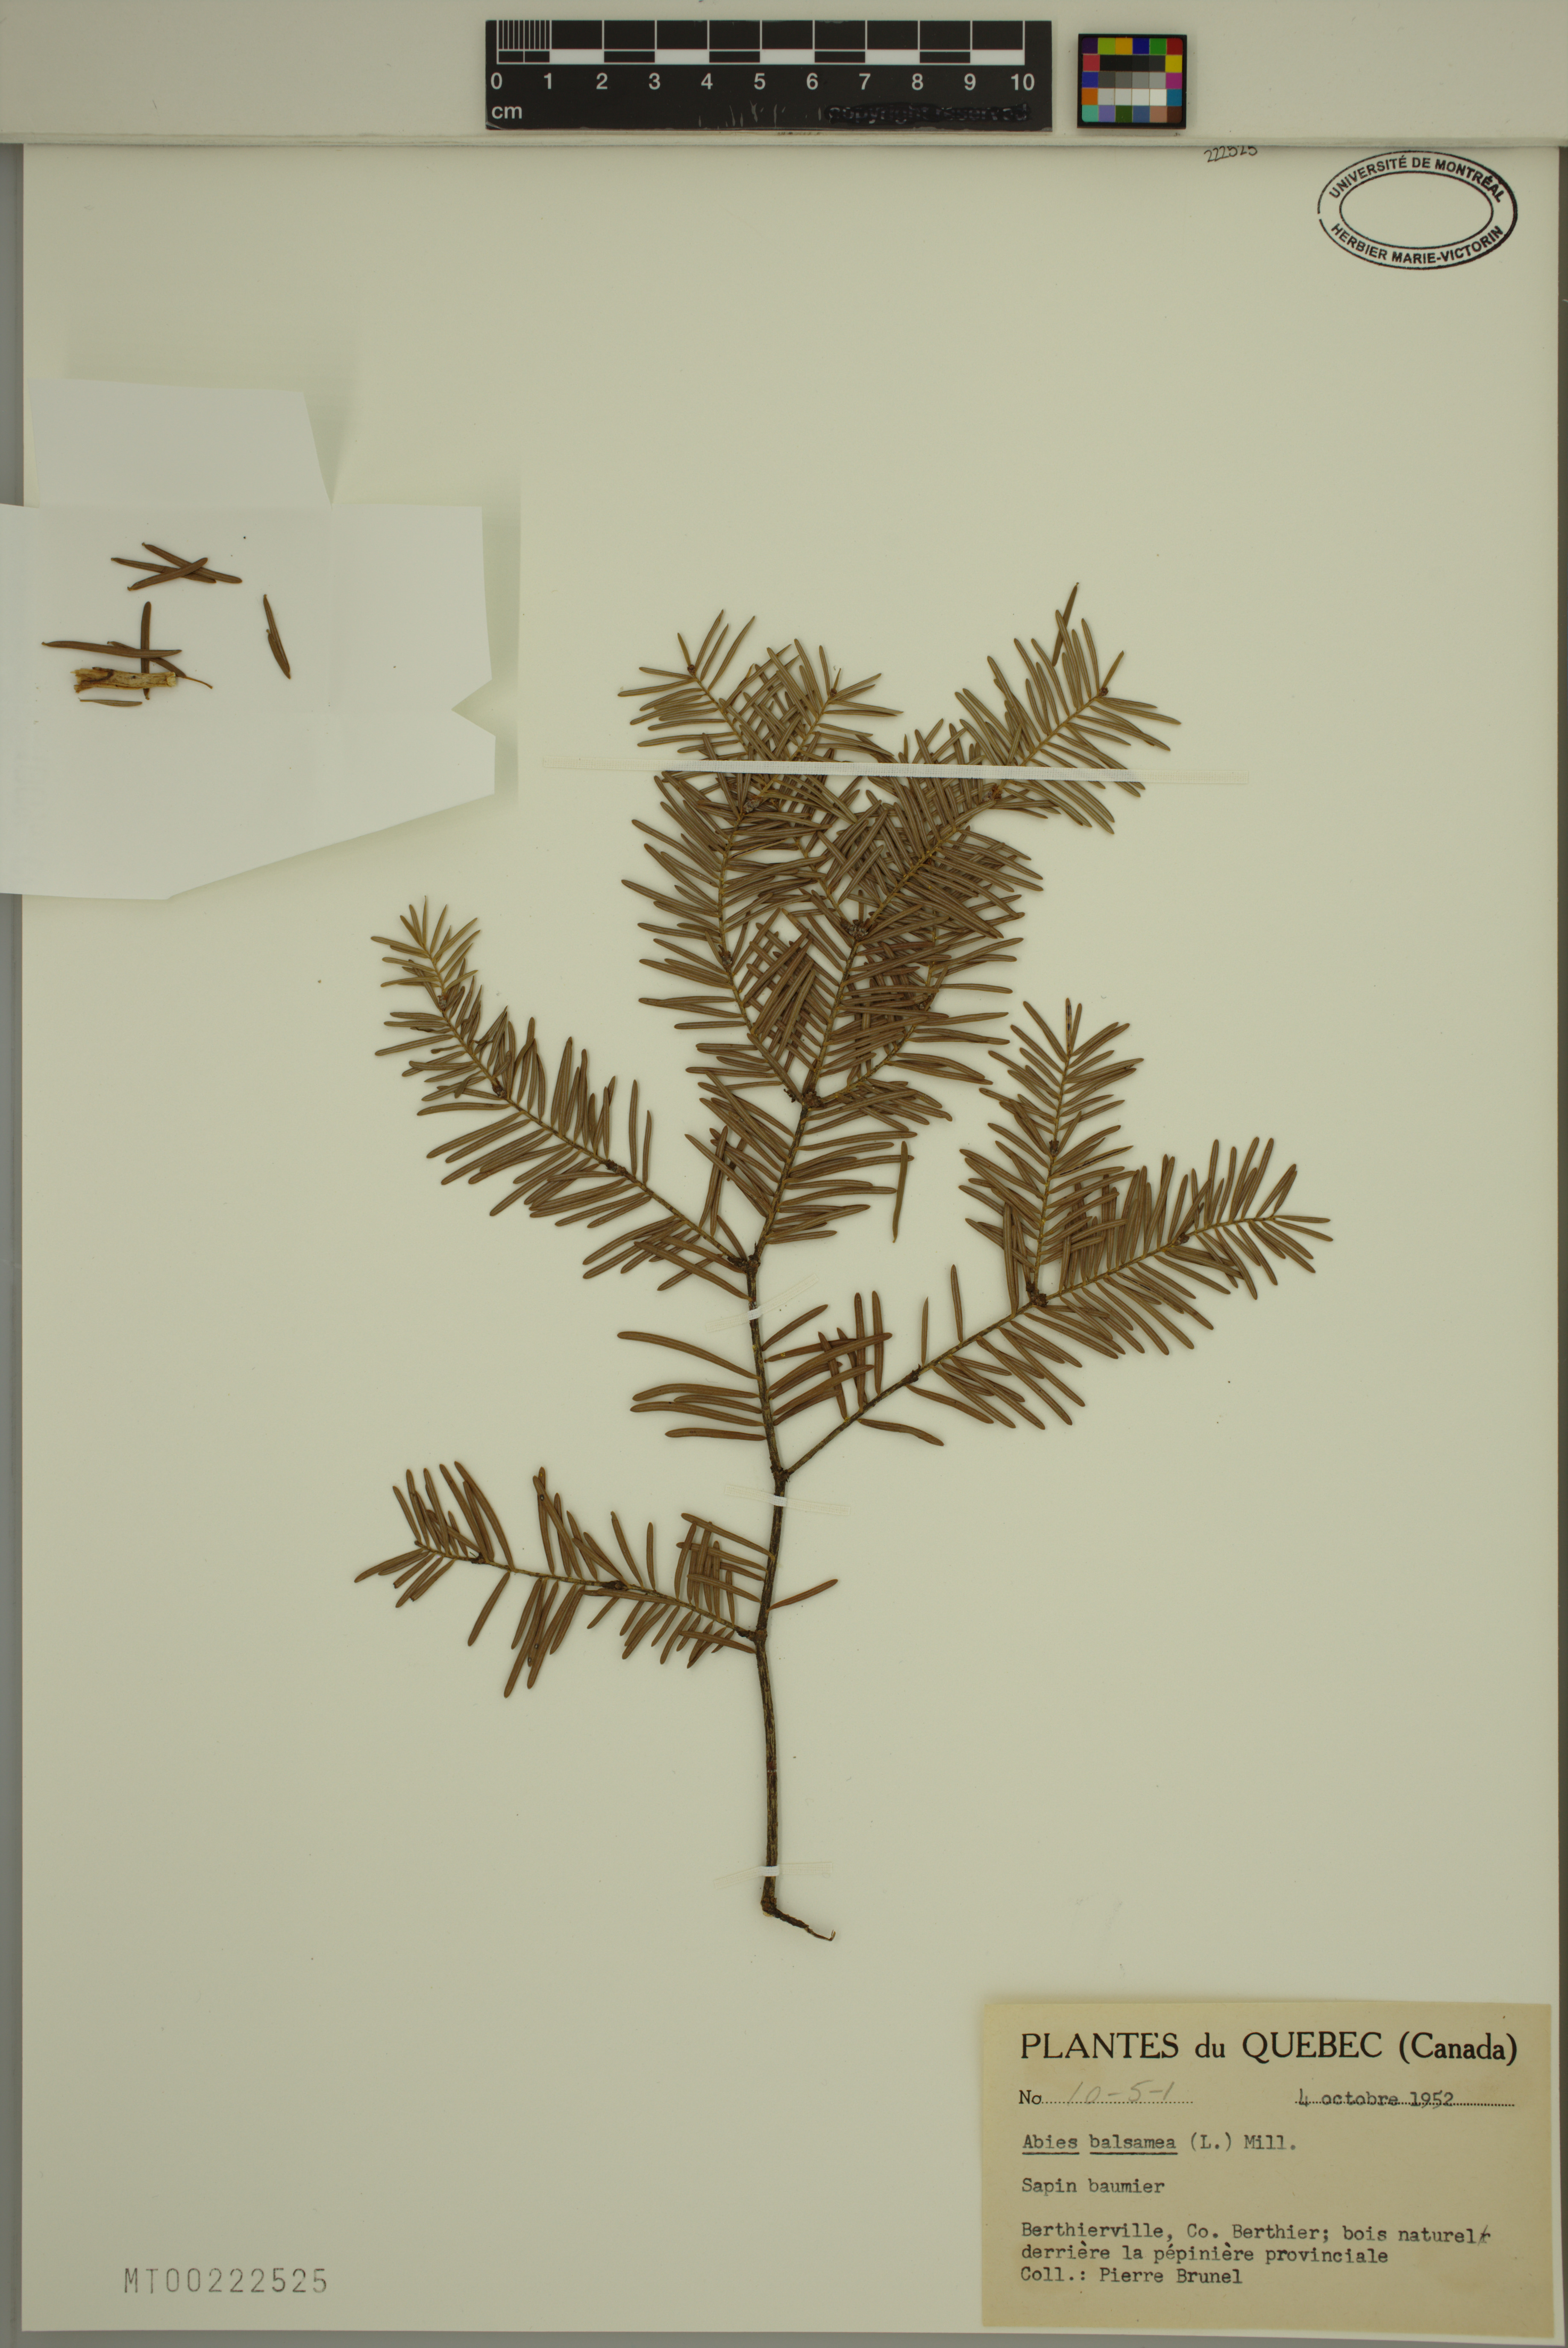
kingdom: Plantae
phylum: Tracheophyta
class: Pinopsida
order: Pinales
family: Pinaceae
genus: Abies
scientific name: Abies balsamea
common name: Balsam fir
